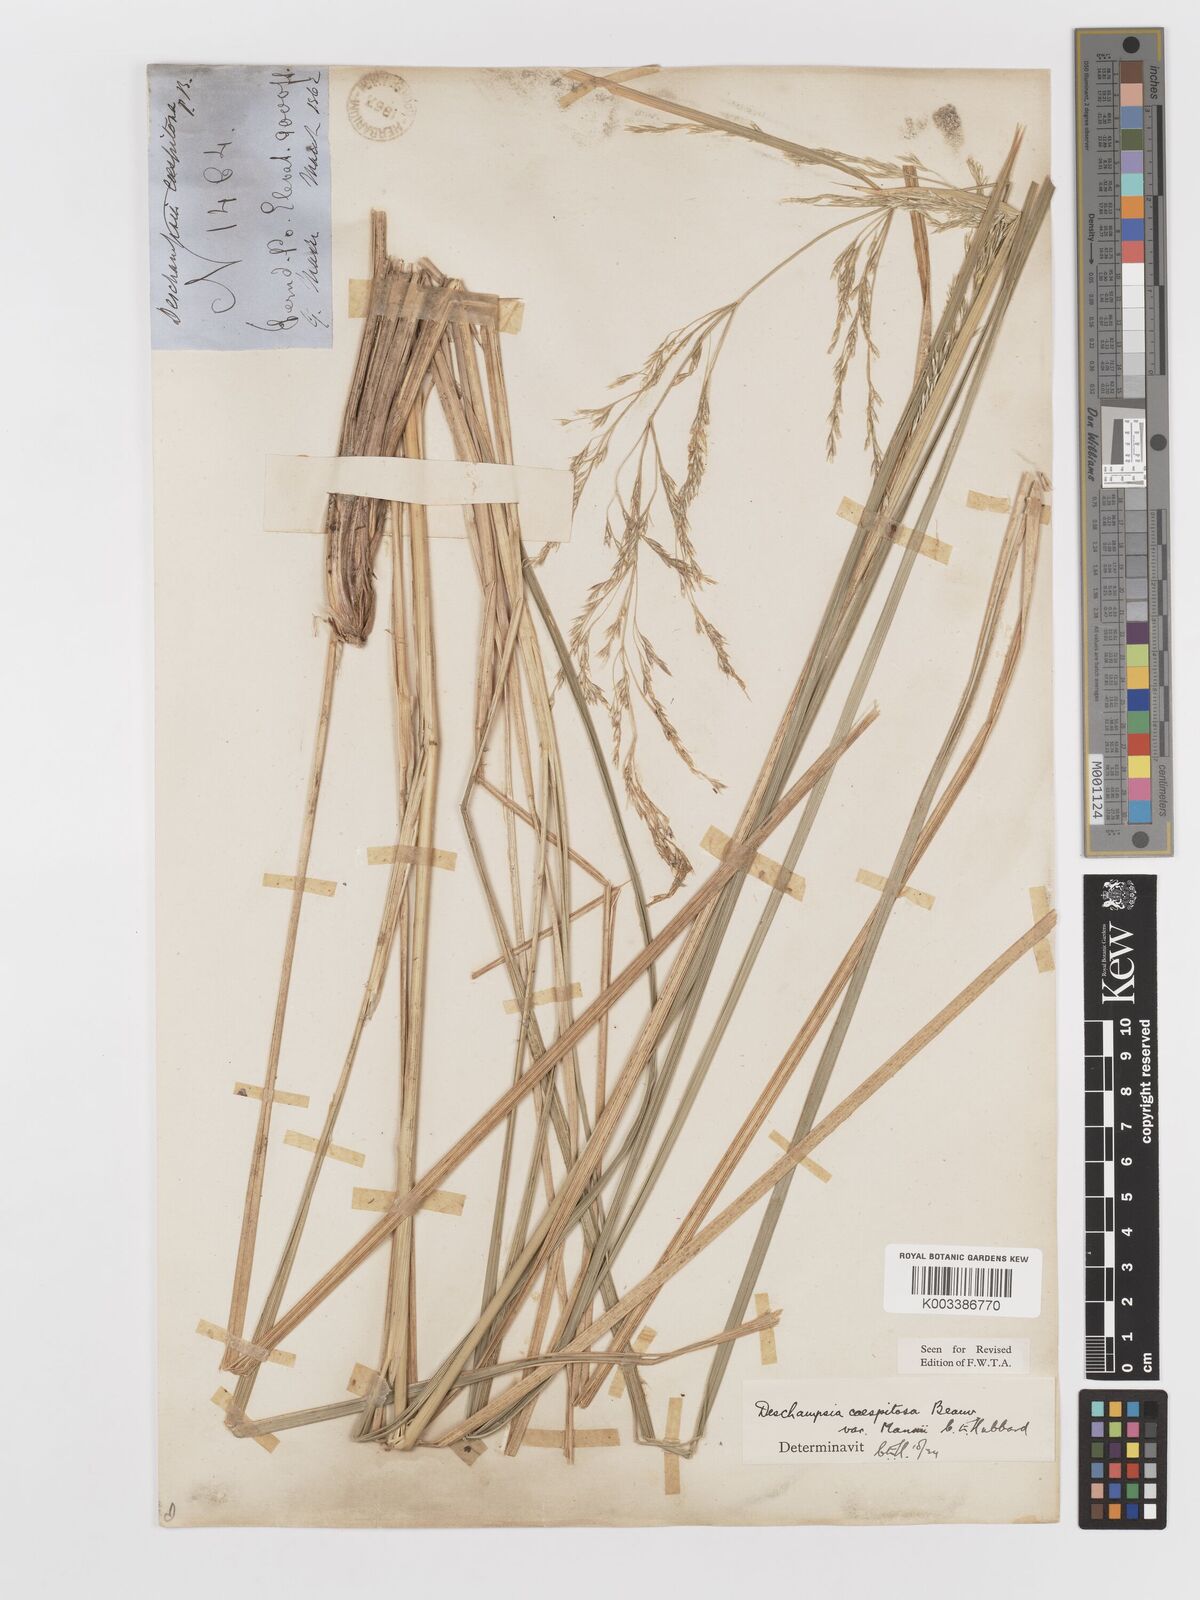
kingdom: Plantae
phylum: Tracheophyta
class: Liliopsida
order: Poales
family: Poaceae
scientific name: Poaceae
